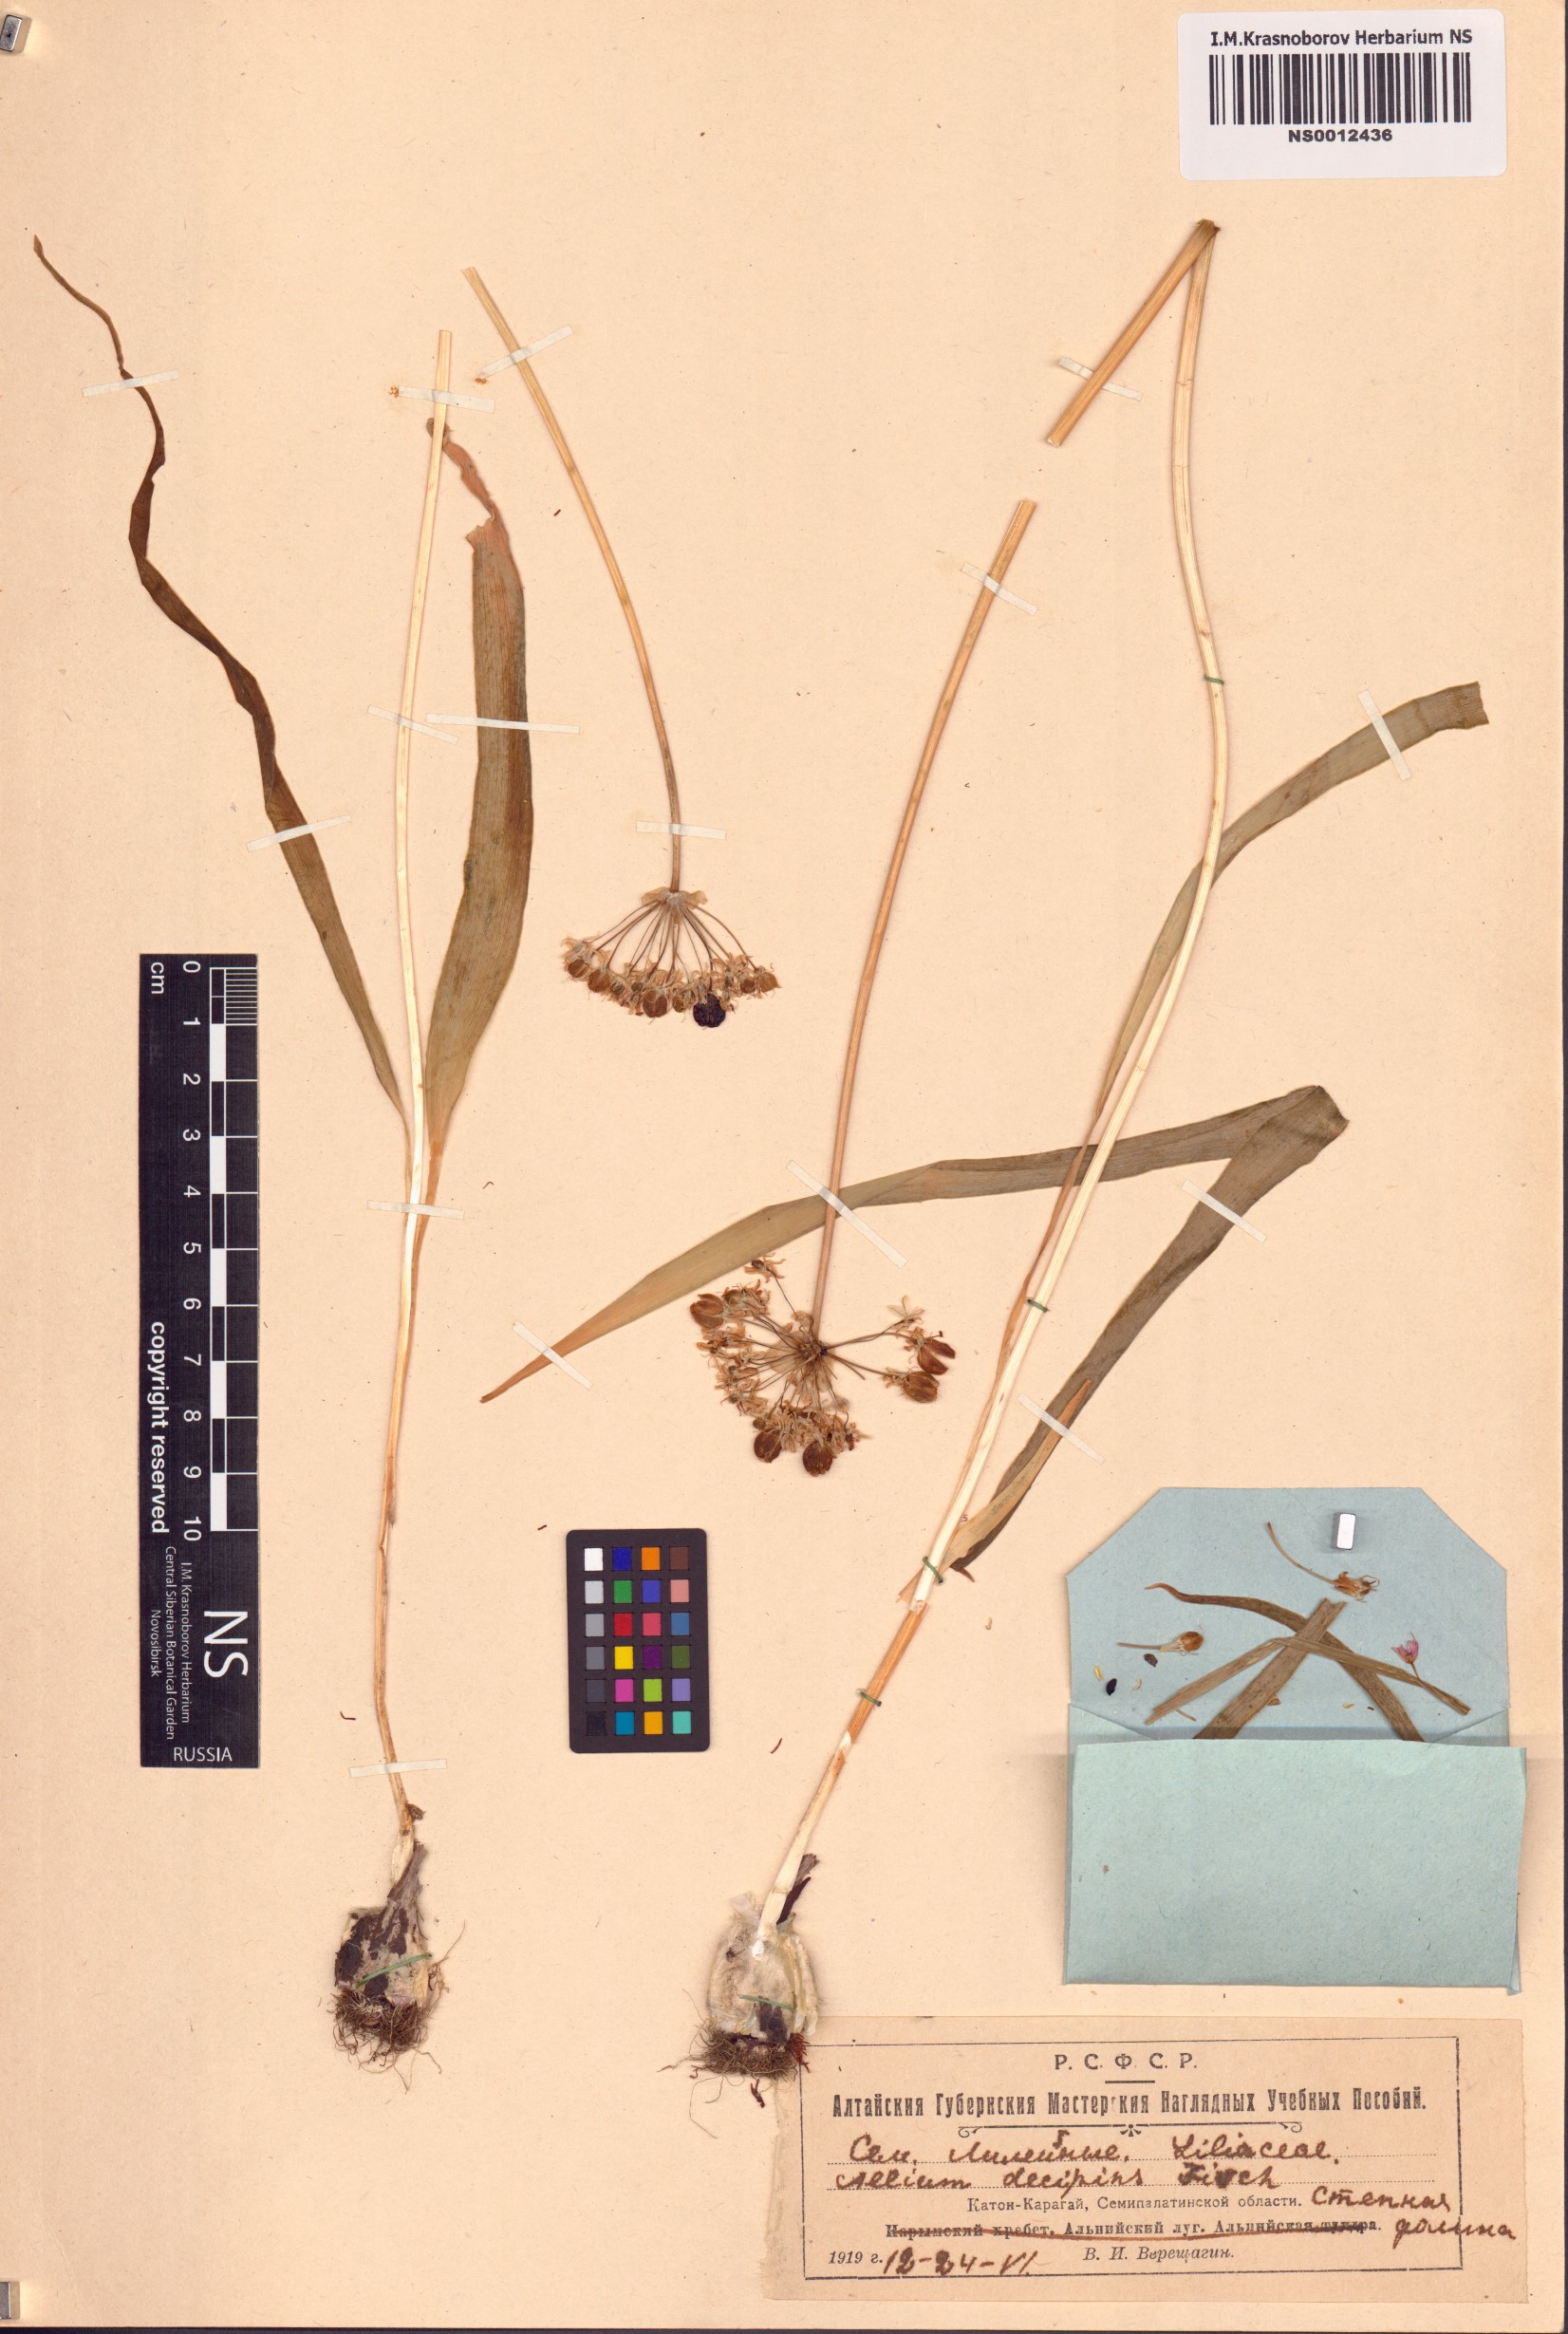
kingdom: Plantae
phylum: Tracheophyta
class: Liliopsida
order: Asparagales
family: Amaryllidaceae
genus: Allium
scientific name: Allium decipiens
